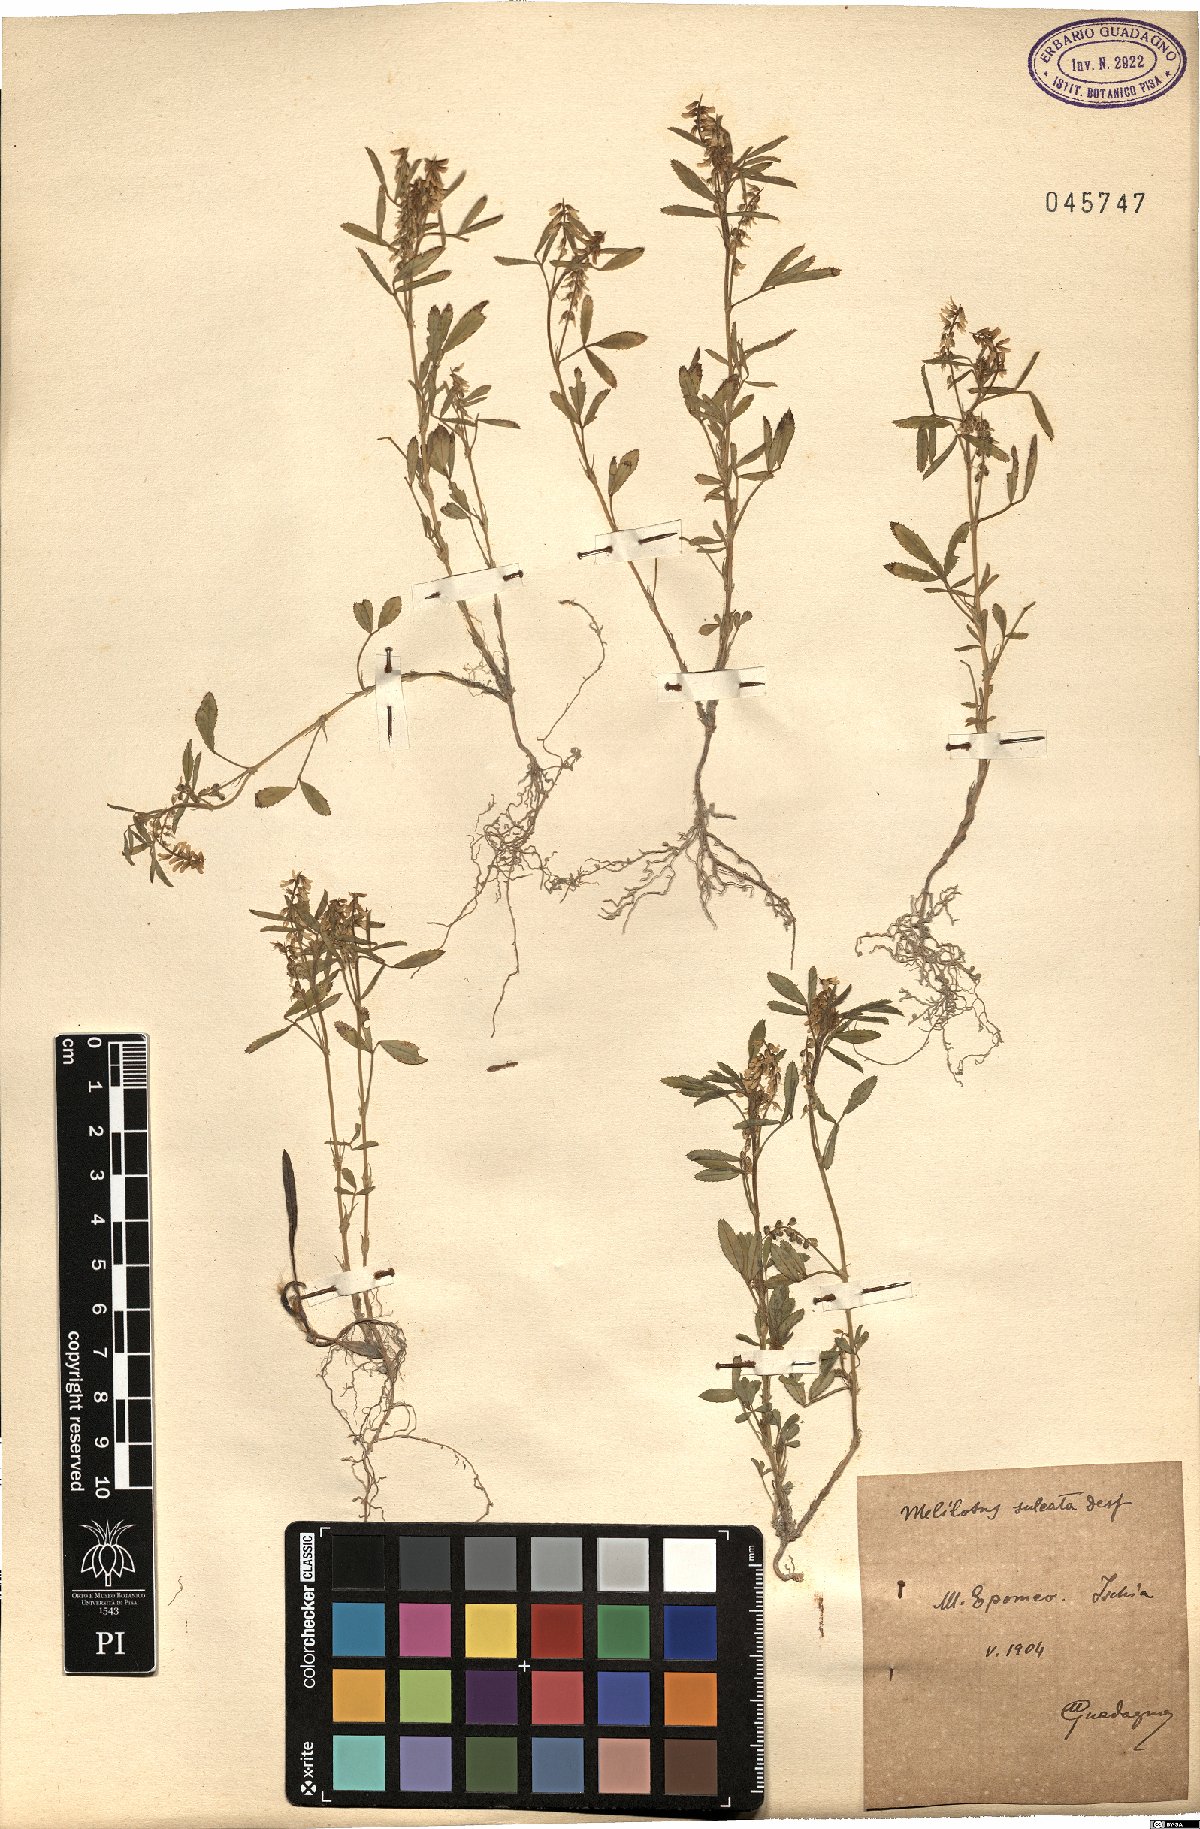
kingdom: Plantae
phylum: Tracheophyta
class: Magnoliopsida
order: Fabales
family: Fabaceae
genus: Melilotus
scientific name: Melilotus sulcatus
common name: Furrowed melilot
